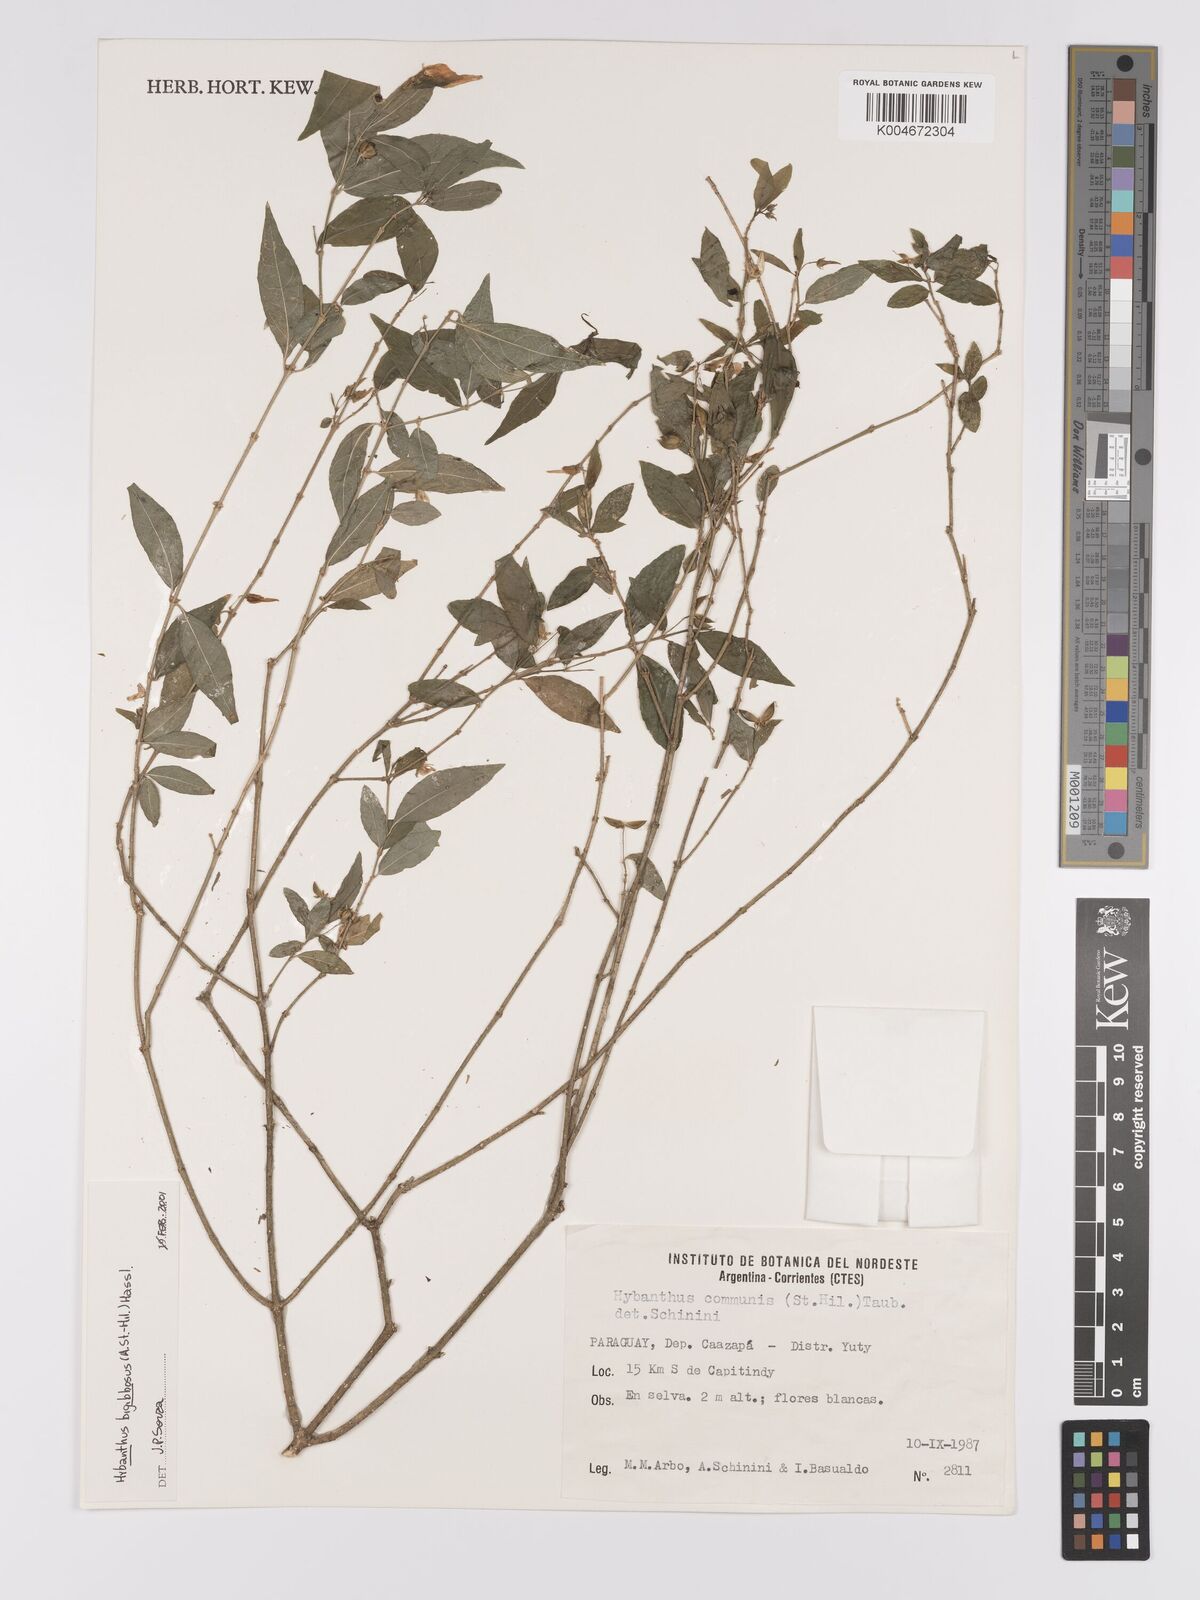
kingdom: Plantae
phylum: Tracheophyta
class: Magnoliopsida
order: Malpighiales
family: Violaceae
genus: Pombalia
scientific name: Pombalia bigibbosa
